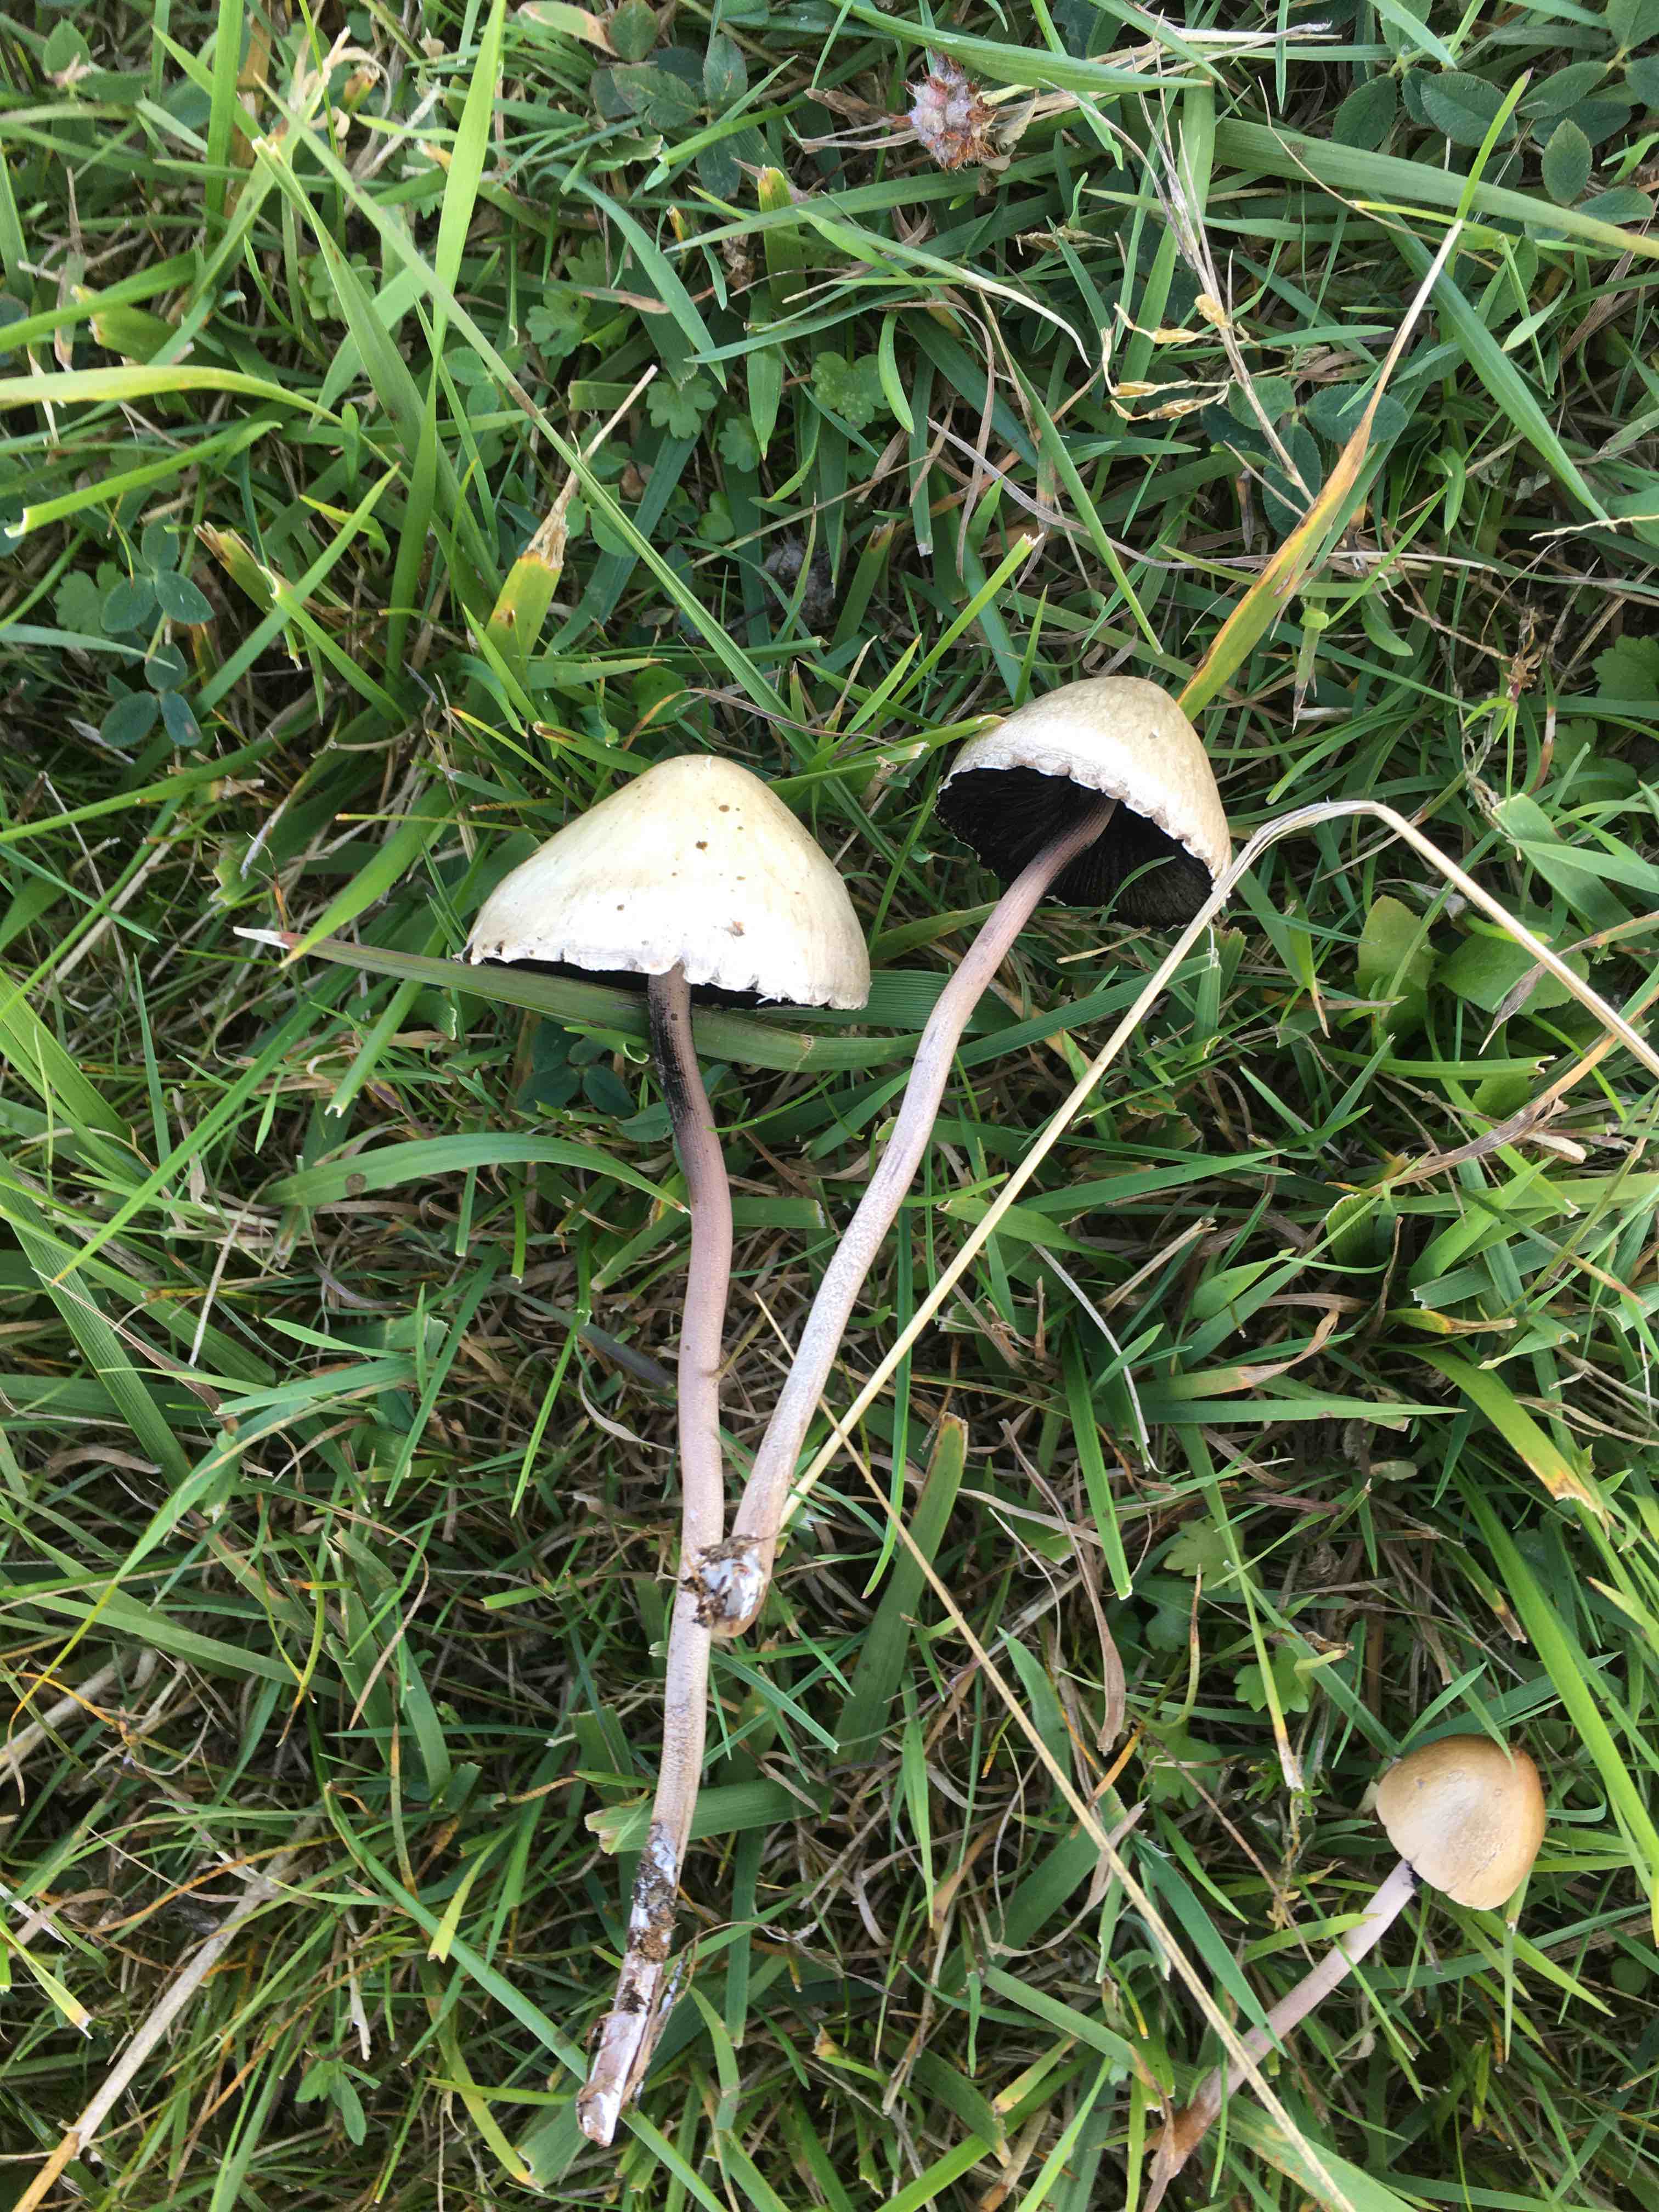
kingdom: Fungi
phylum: Basidiomycota
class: Agaricomycetes
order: Agaricales
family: Bolbitiaceae
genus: Panaeolus
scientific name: Panaeolus papilionaceus
